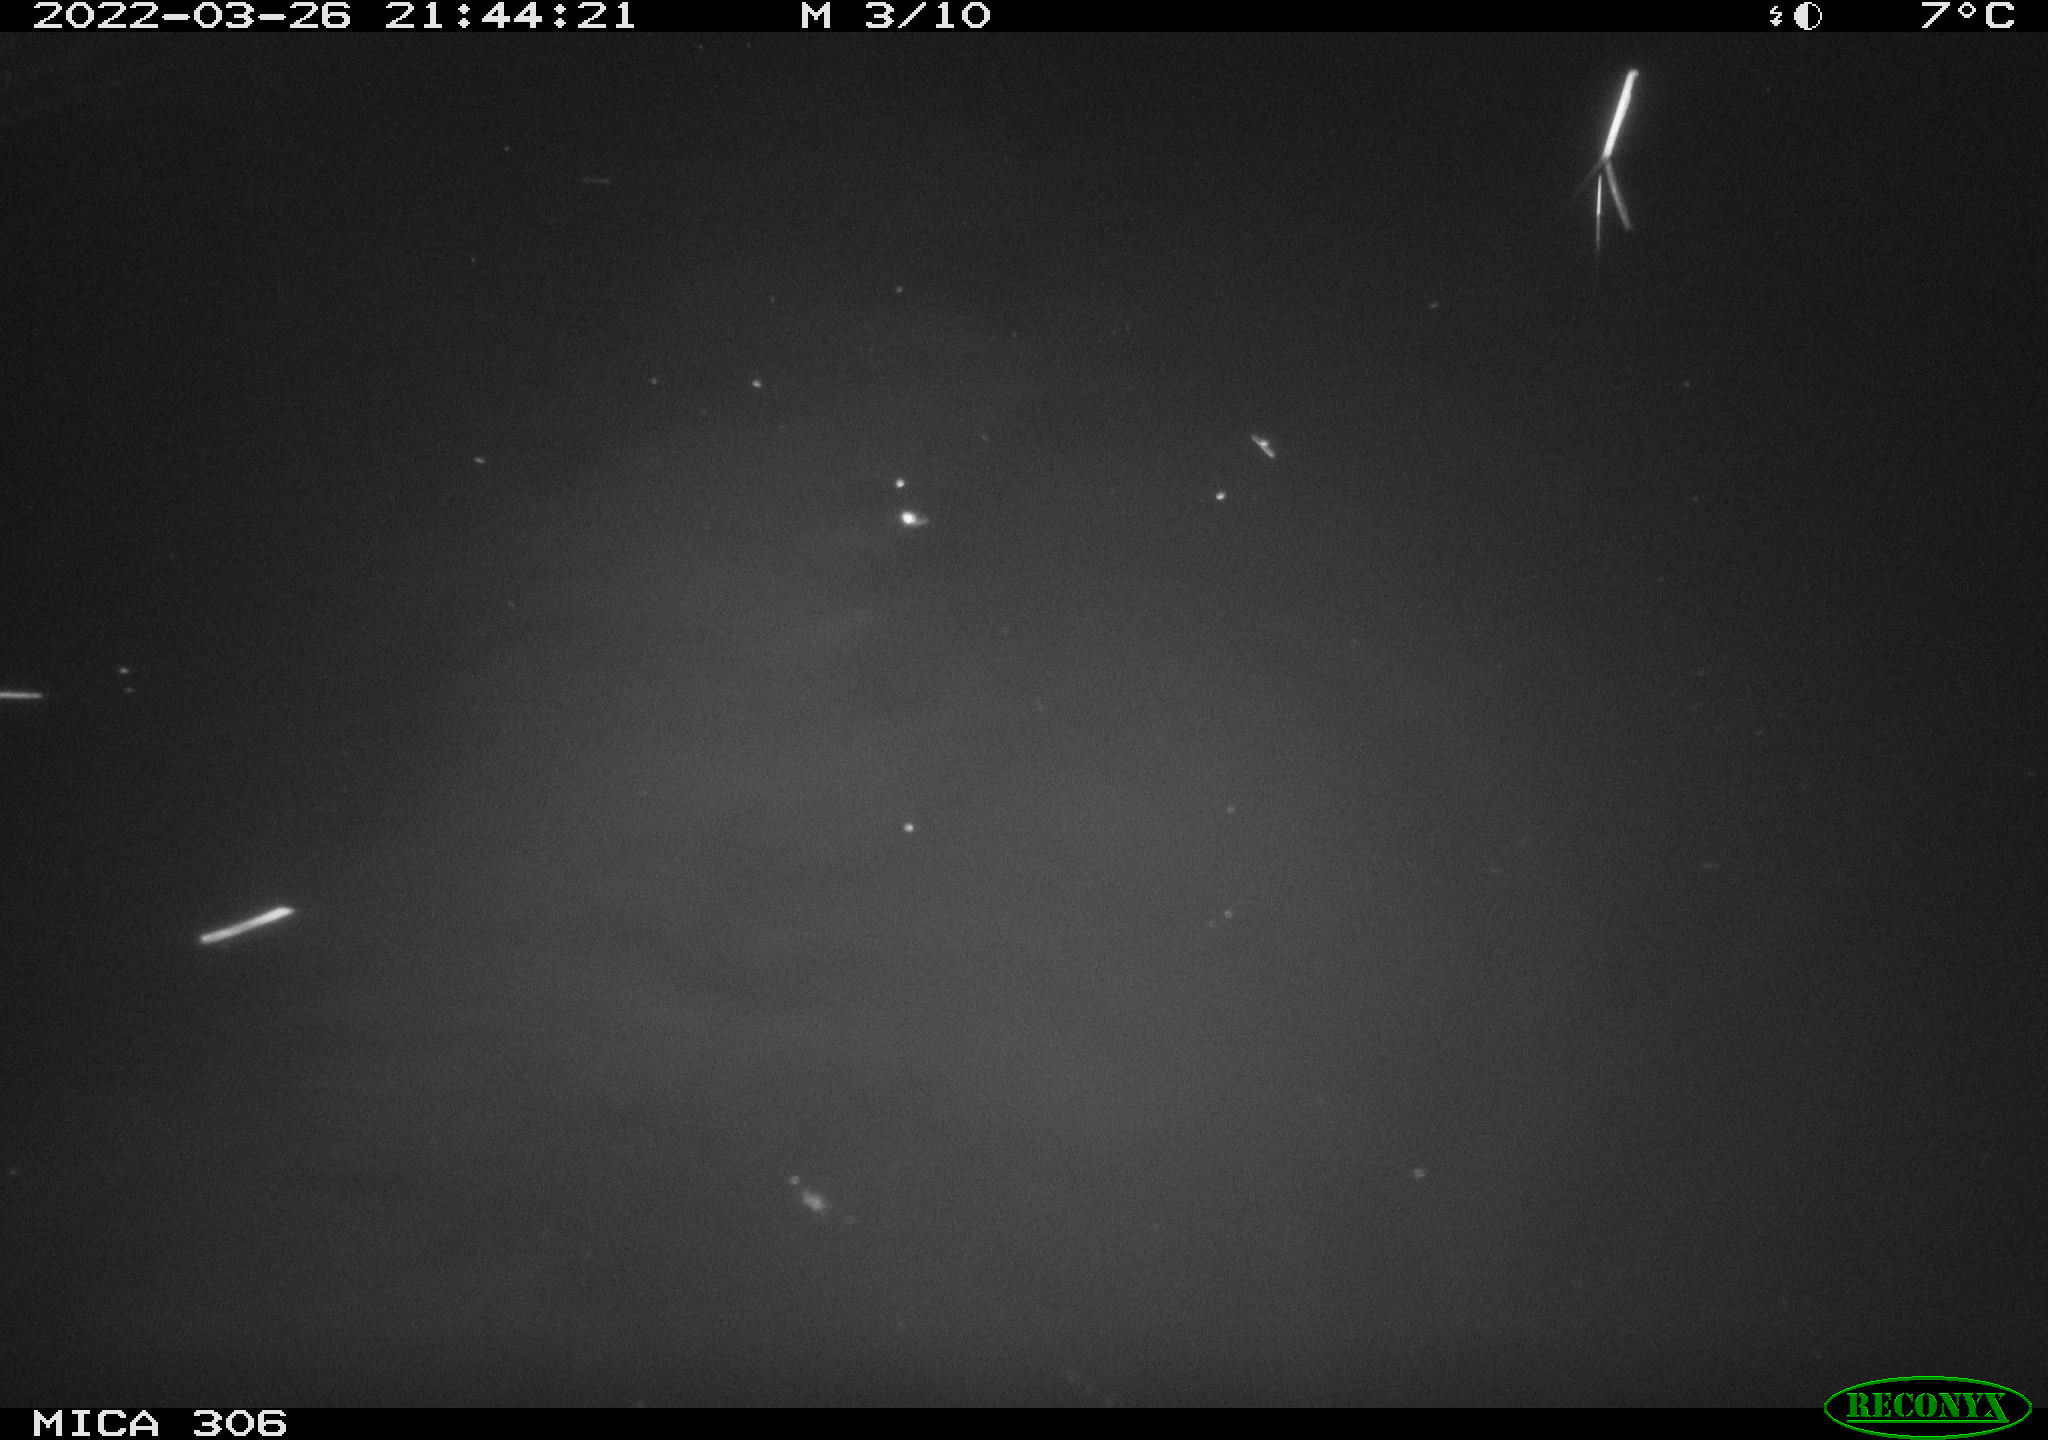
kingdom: Animalia
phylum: Chordata
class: Mammalia
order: Rodentia
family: Cricetidae
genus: Ondatra
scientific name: Ondatra zibethicus
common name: Muskrat
